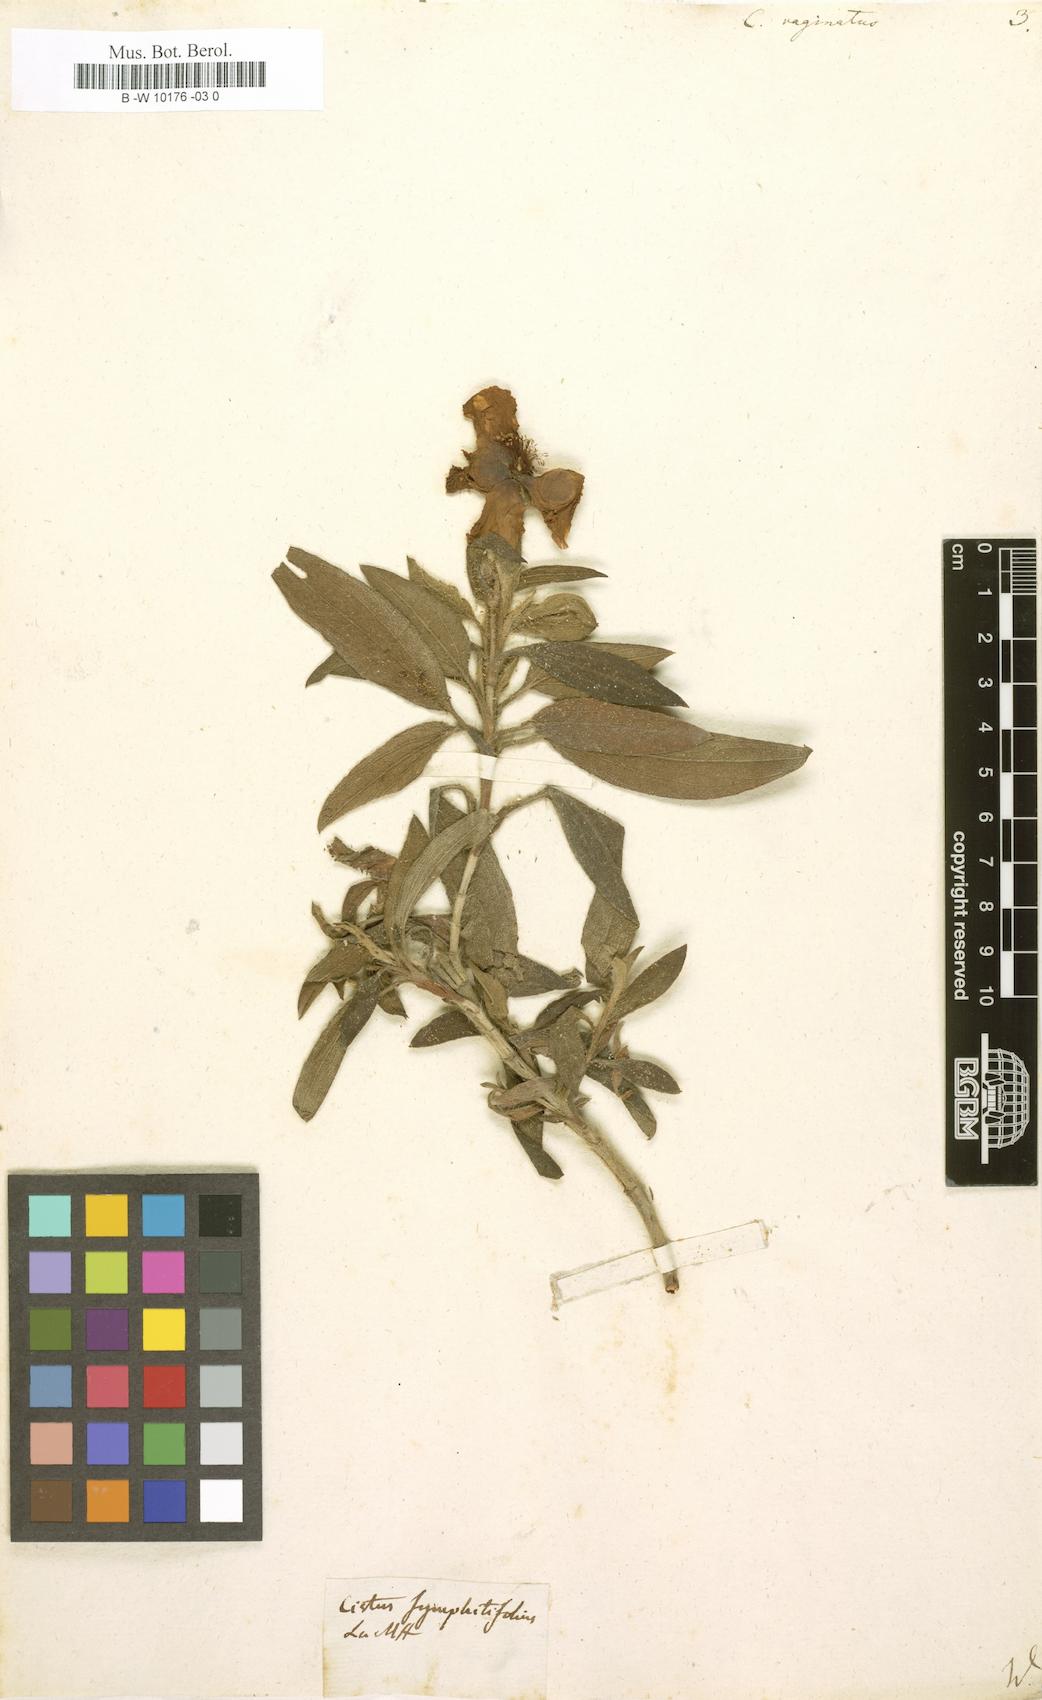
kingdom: Plantae
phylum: Tracheophyta
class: Magnoliopsida
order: Malvales
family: Cistaceae
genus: Cistus
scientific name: Cistus symphytifolius
